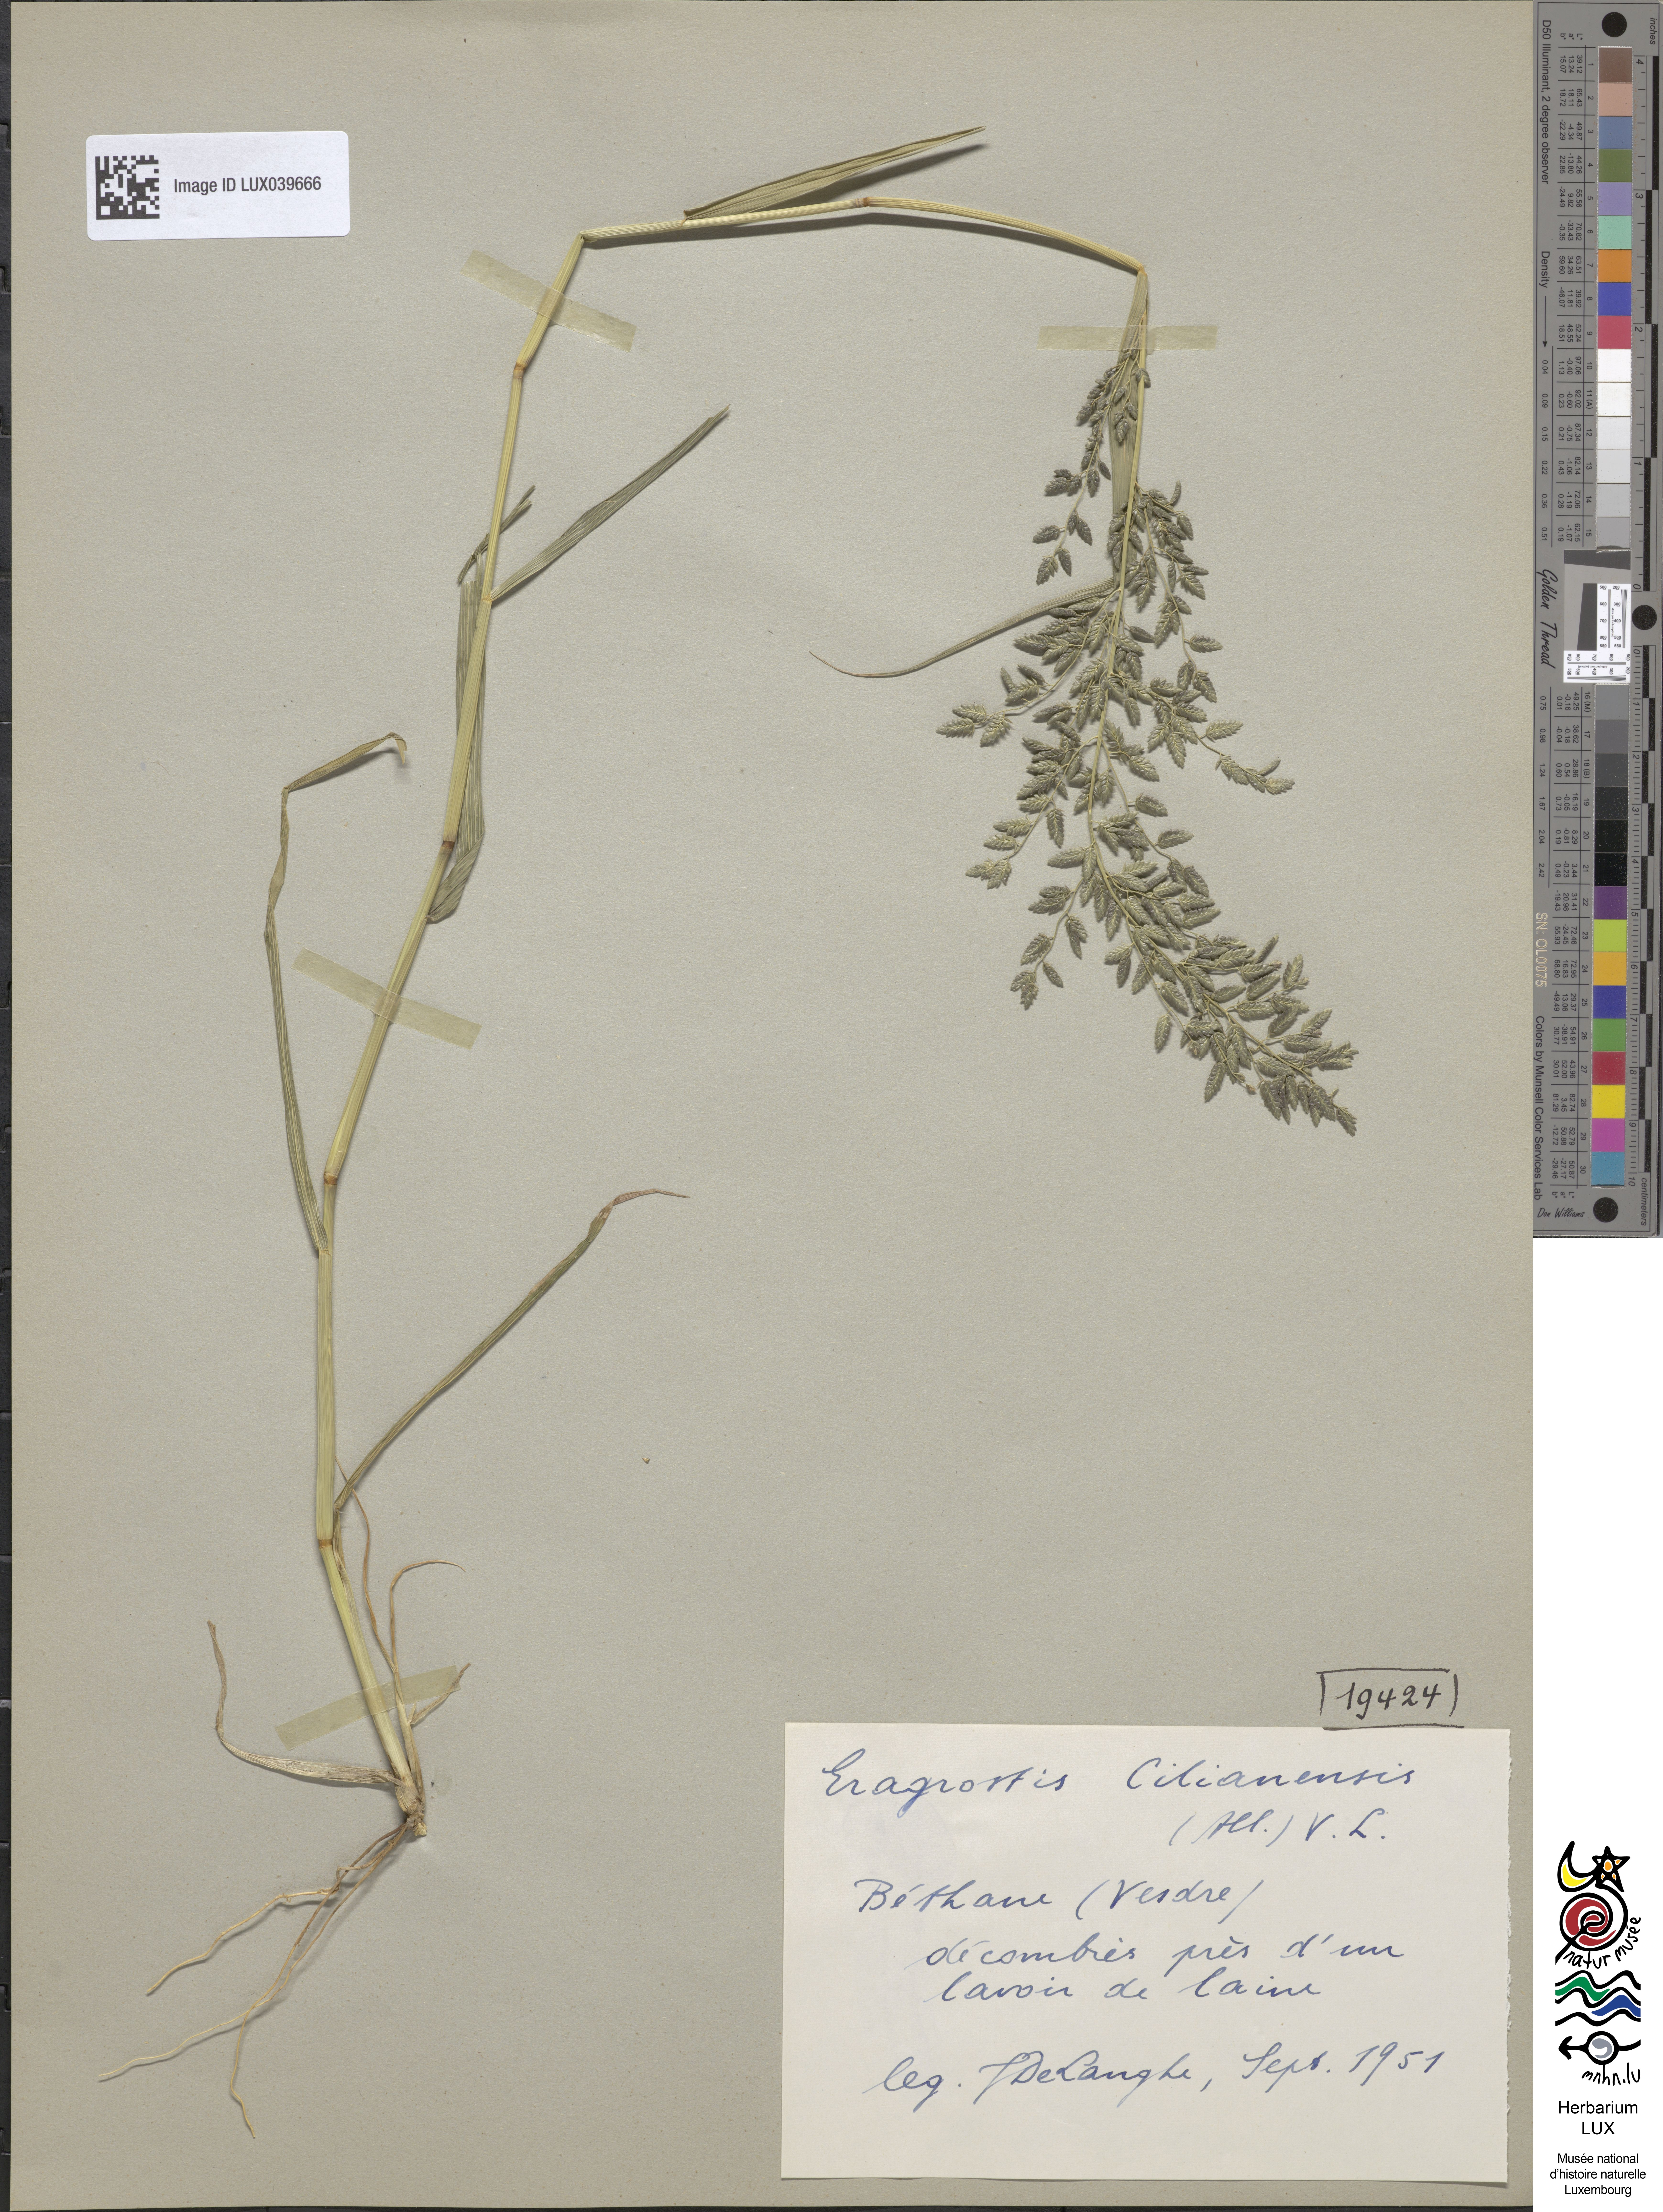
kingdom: Plantae
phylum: Tracheophyta
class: Liliopsida
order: Poales
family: Poaceae
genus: Eragrostis
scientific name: Eragrostis cilianensis
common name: Stinkgrass
